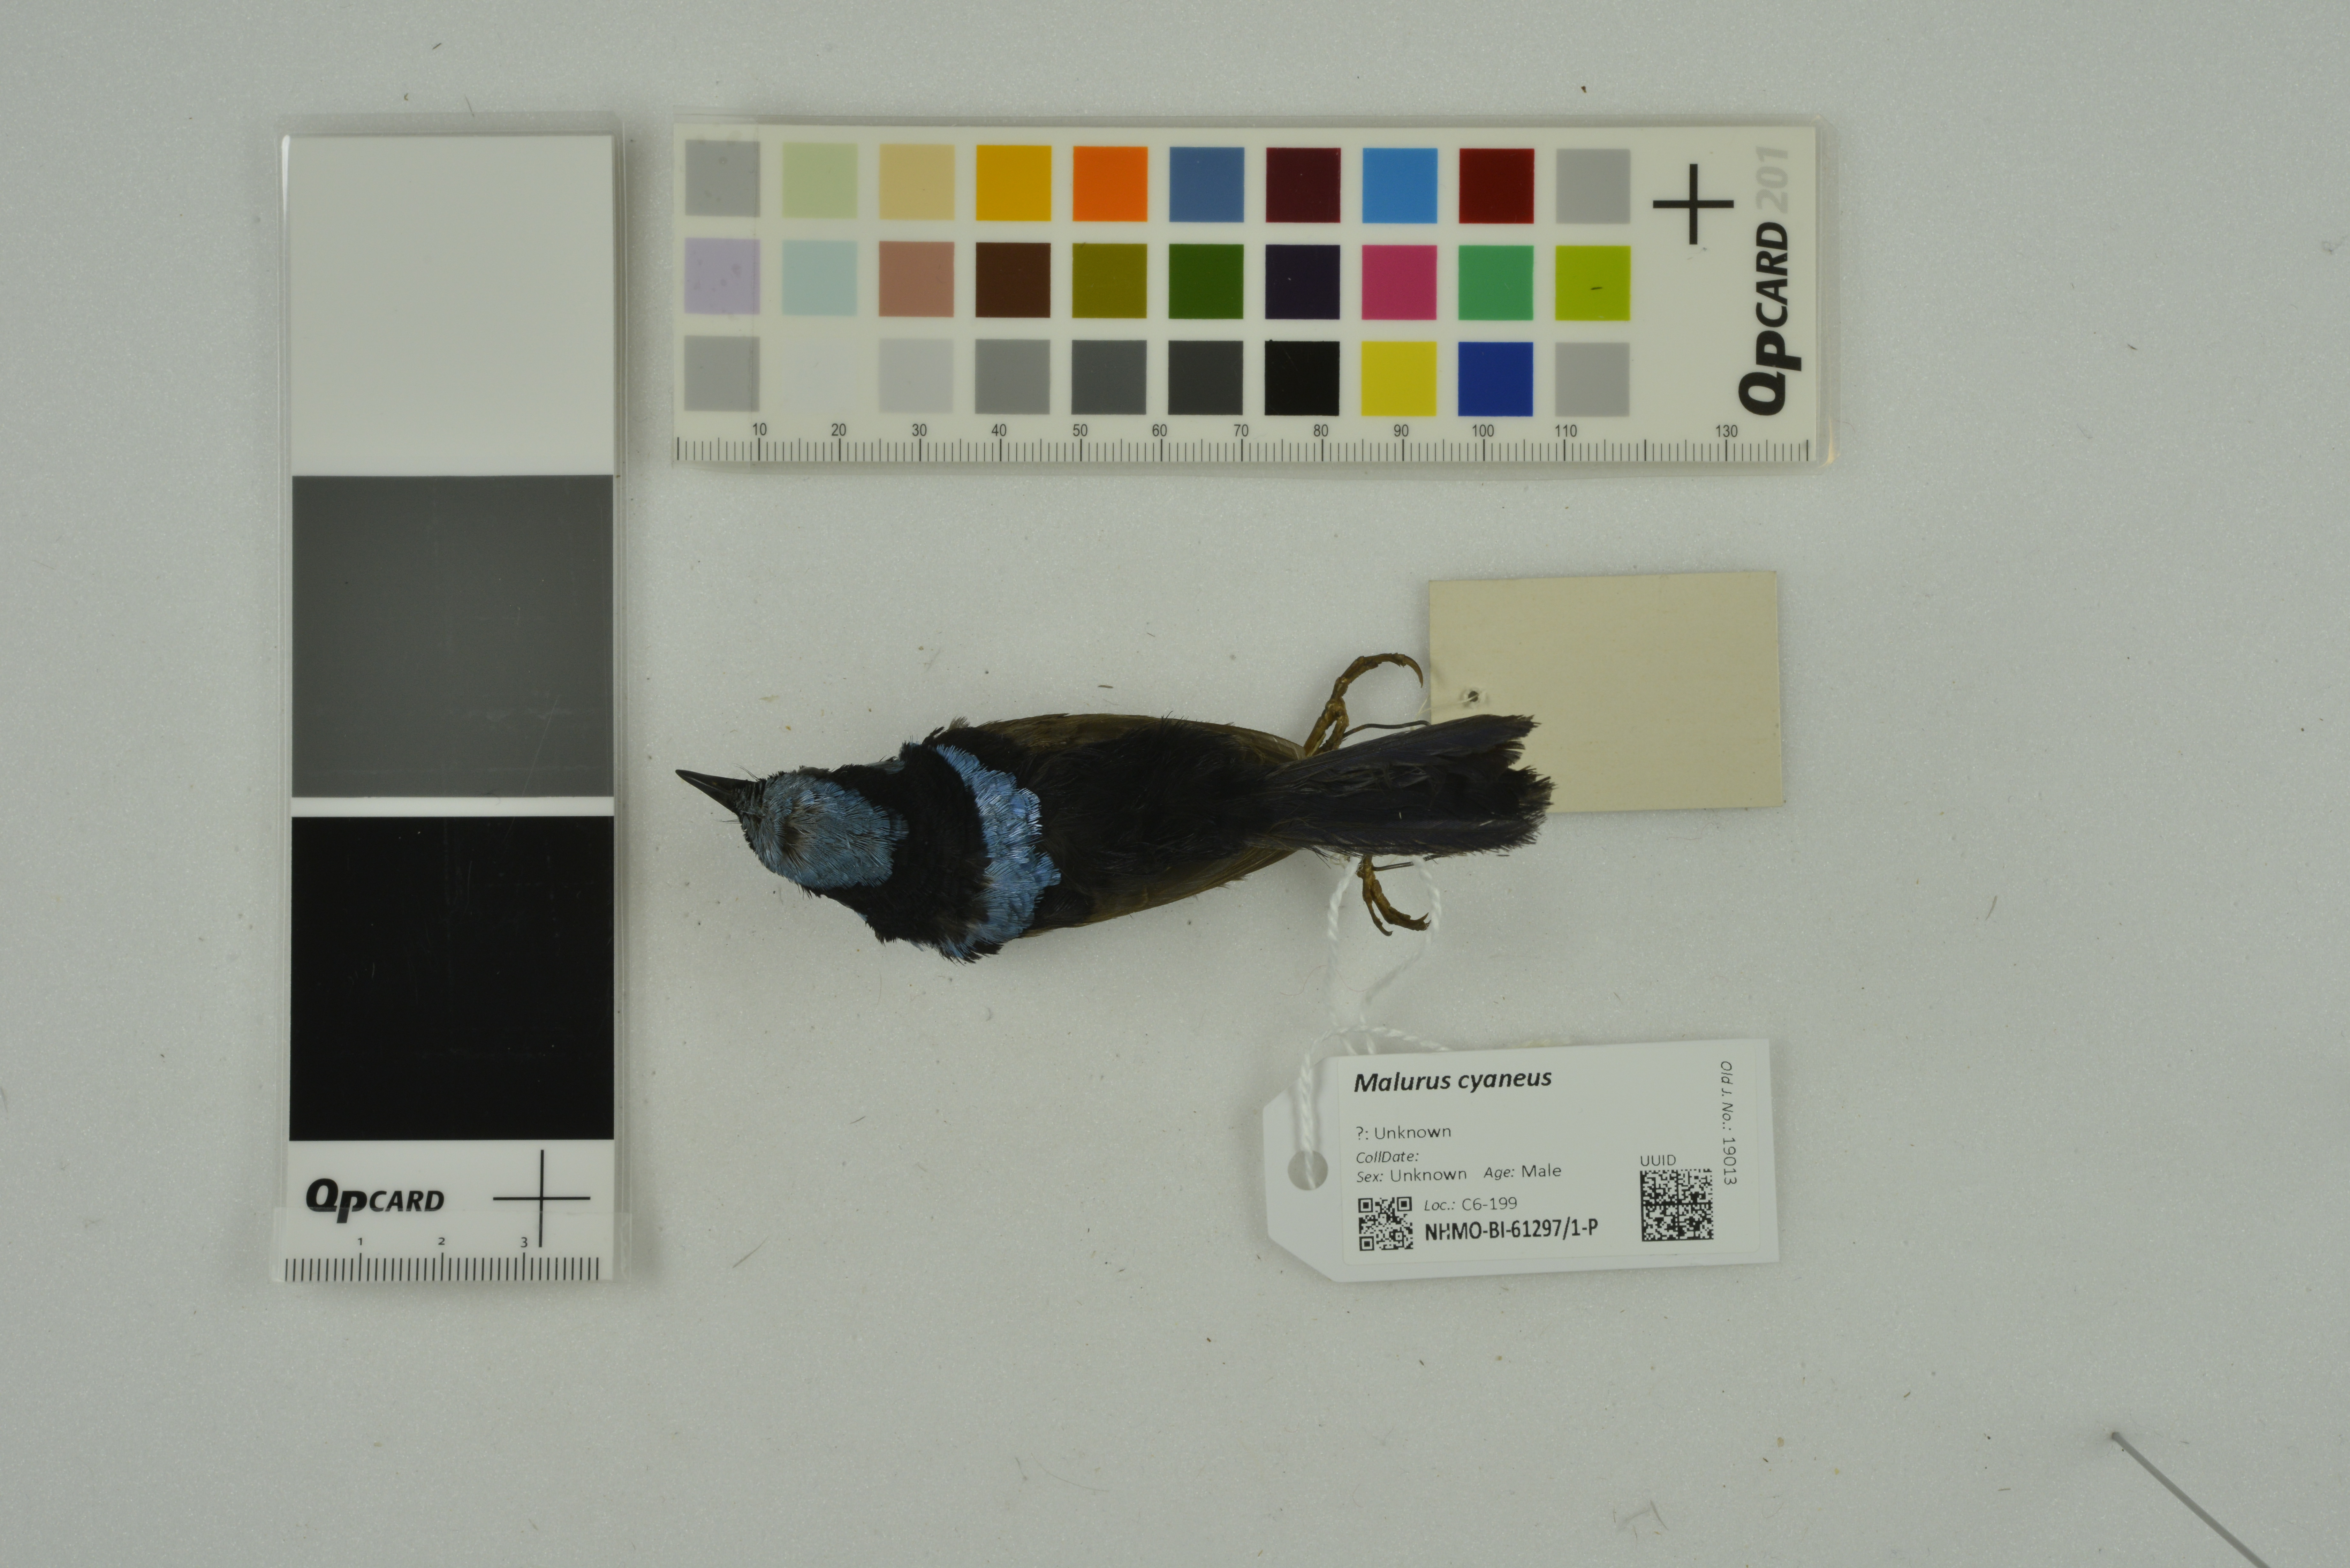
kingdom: Animalia
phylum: Chordata
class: Aves
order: Passeriformes
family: Maluridae
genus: Malurus
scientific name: Malurus cyaneus
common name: Superb fairywren
